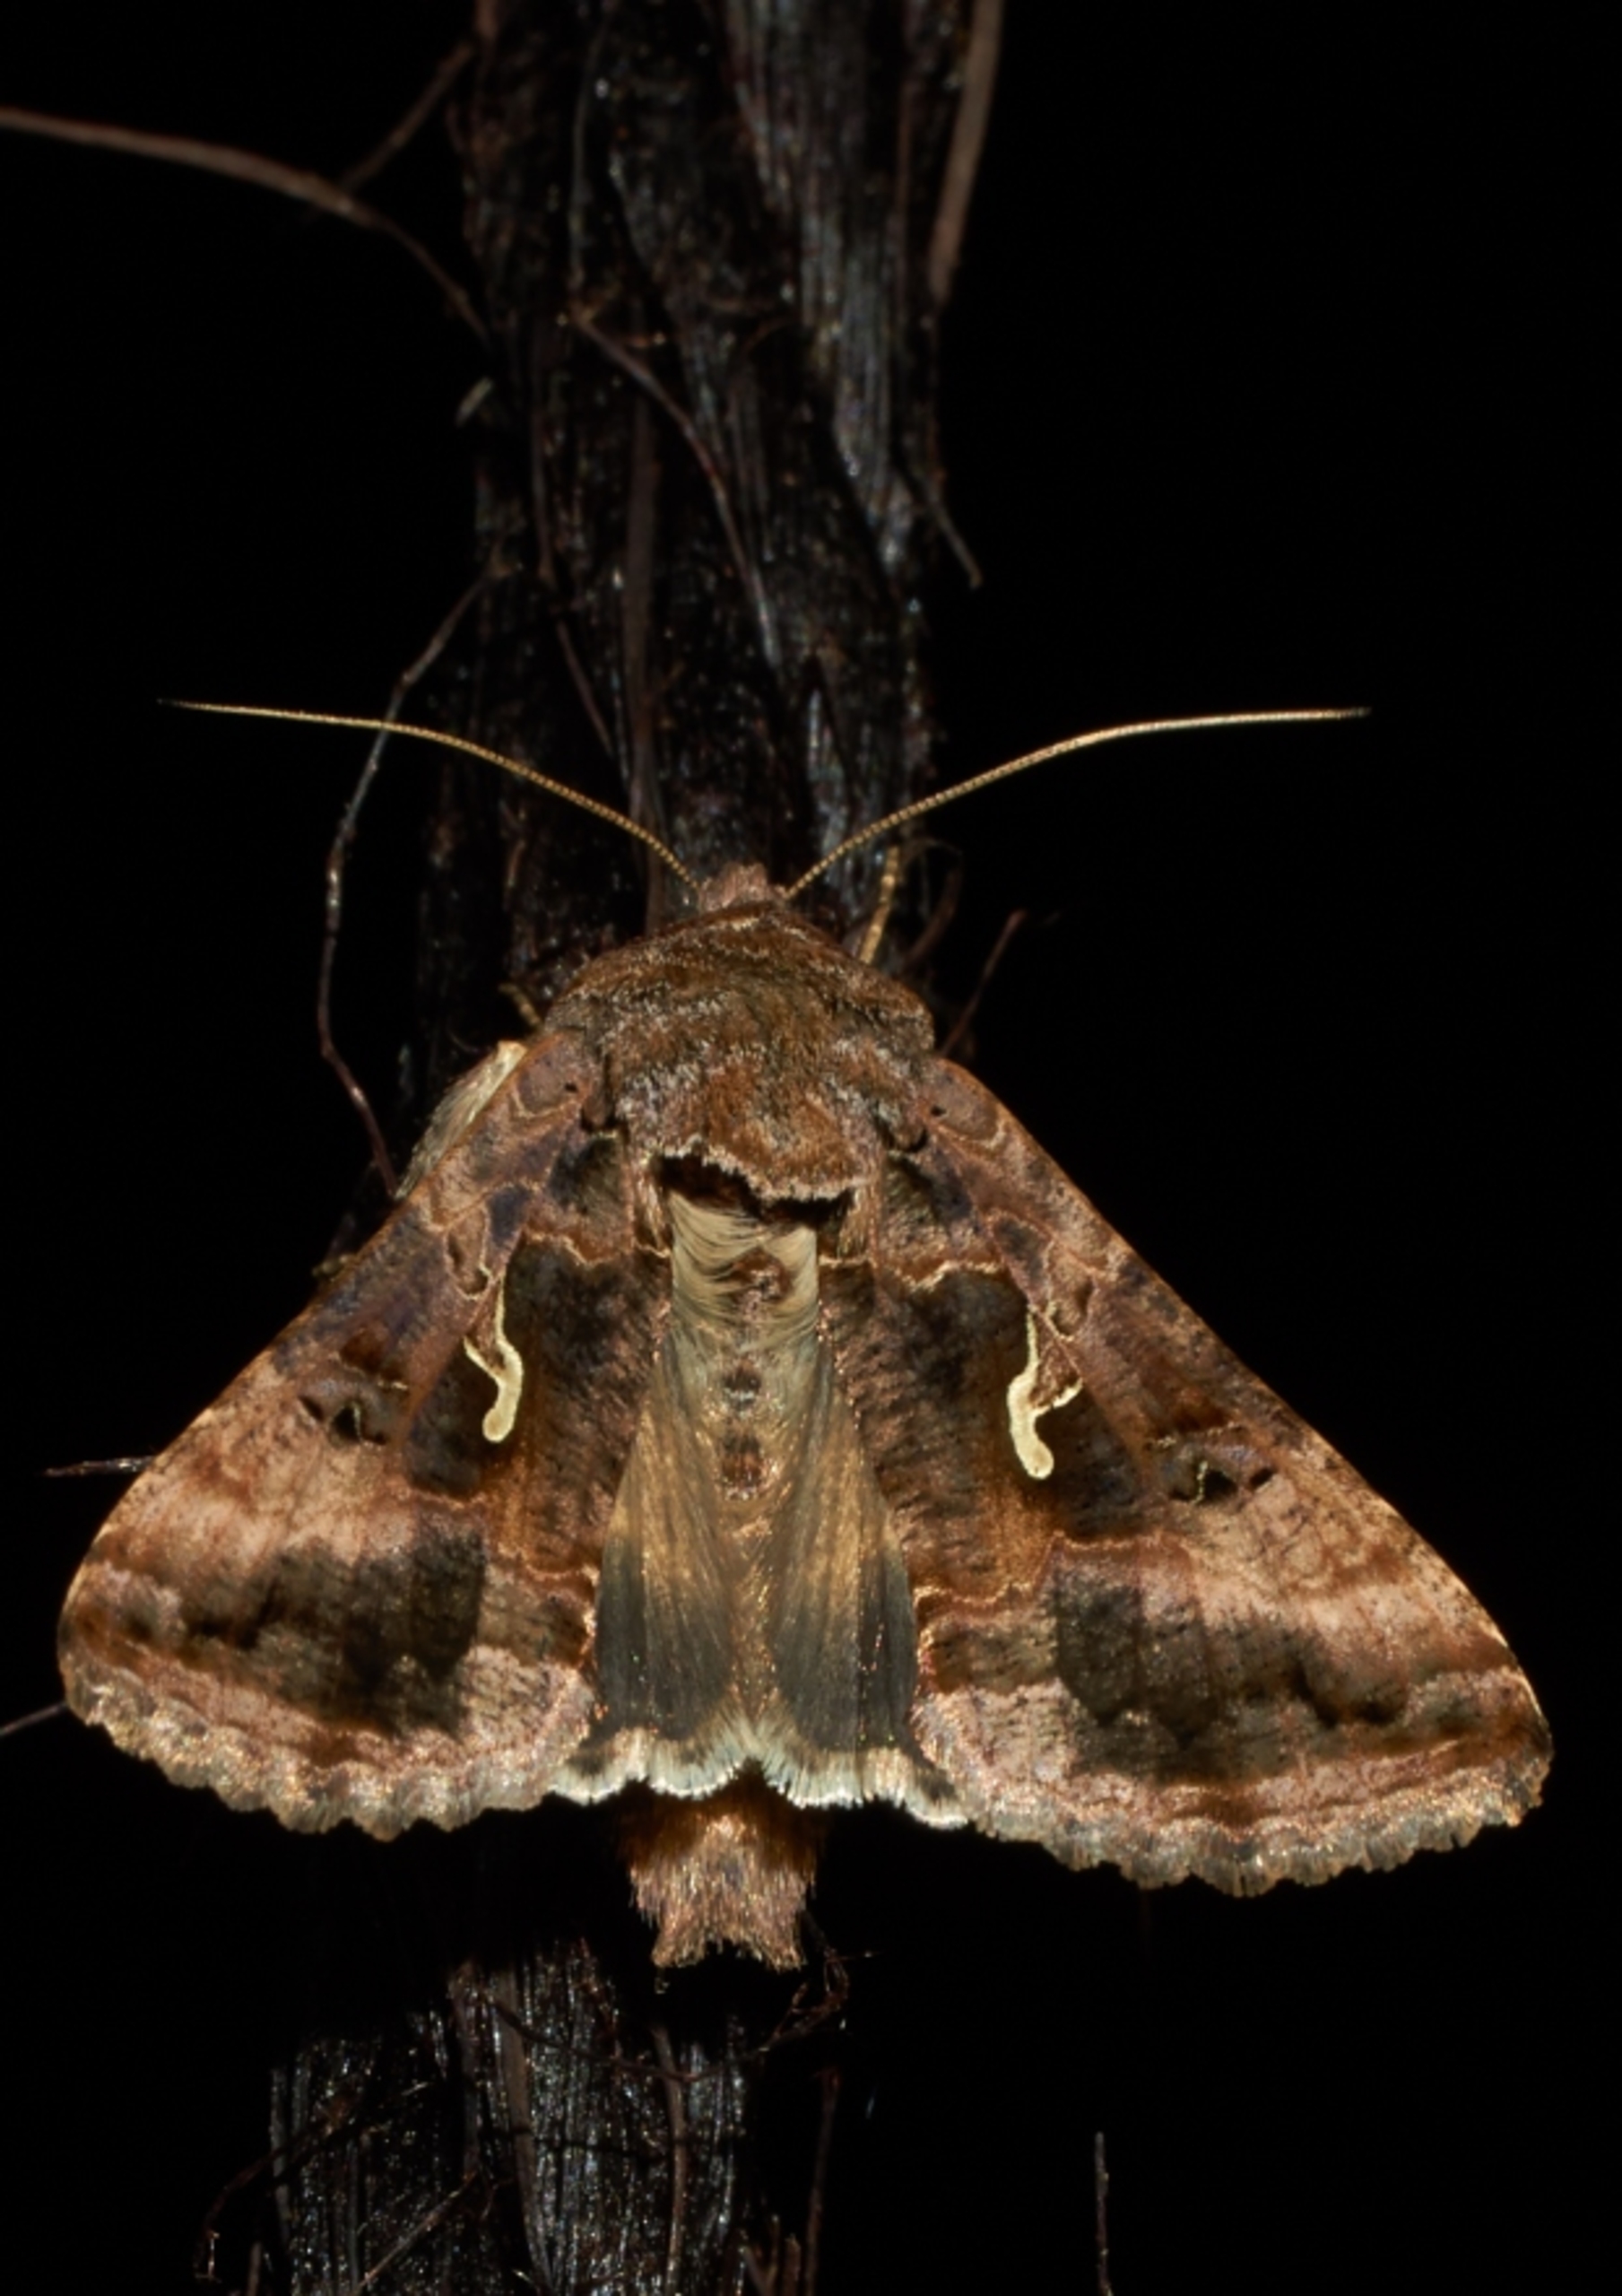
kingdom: Animalia
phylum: Arthropoda
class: Insecta
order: Lepidoptera
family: Noctuidae
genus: Autographa
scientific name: Autographa gamma
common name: Gammaugle
